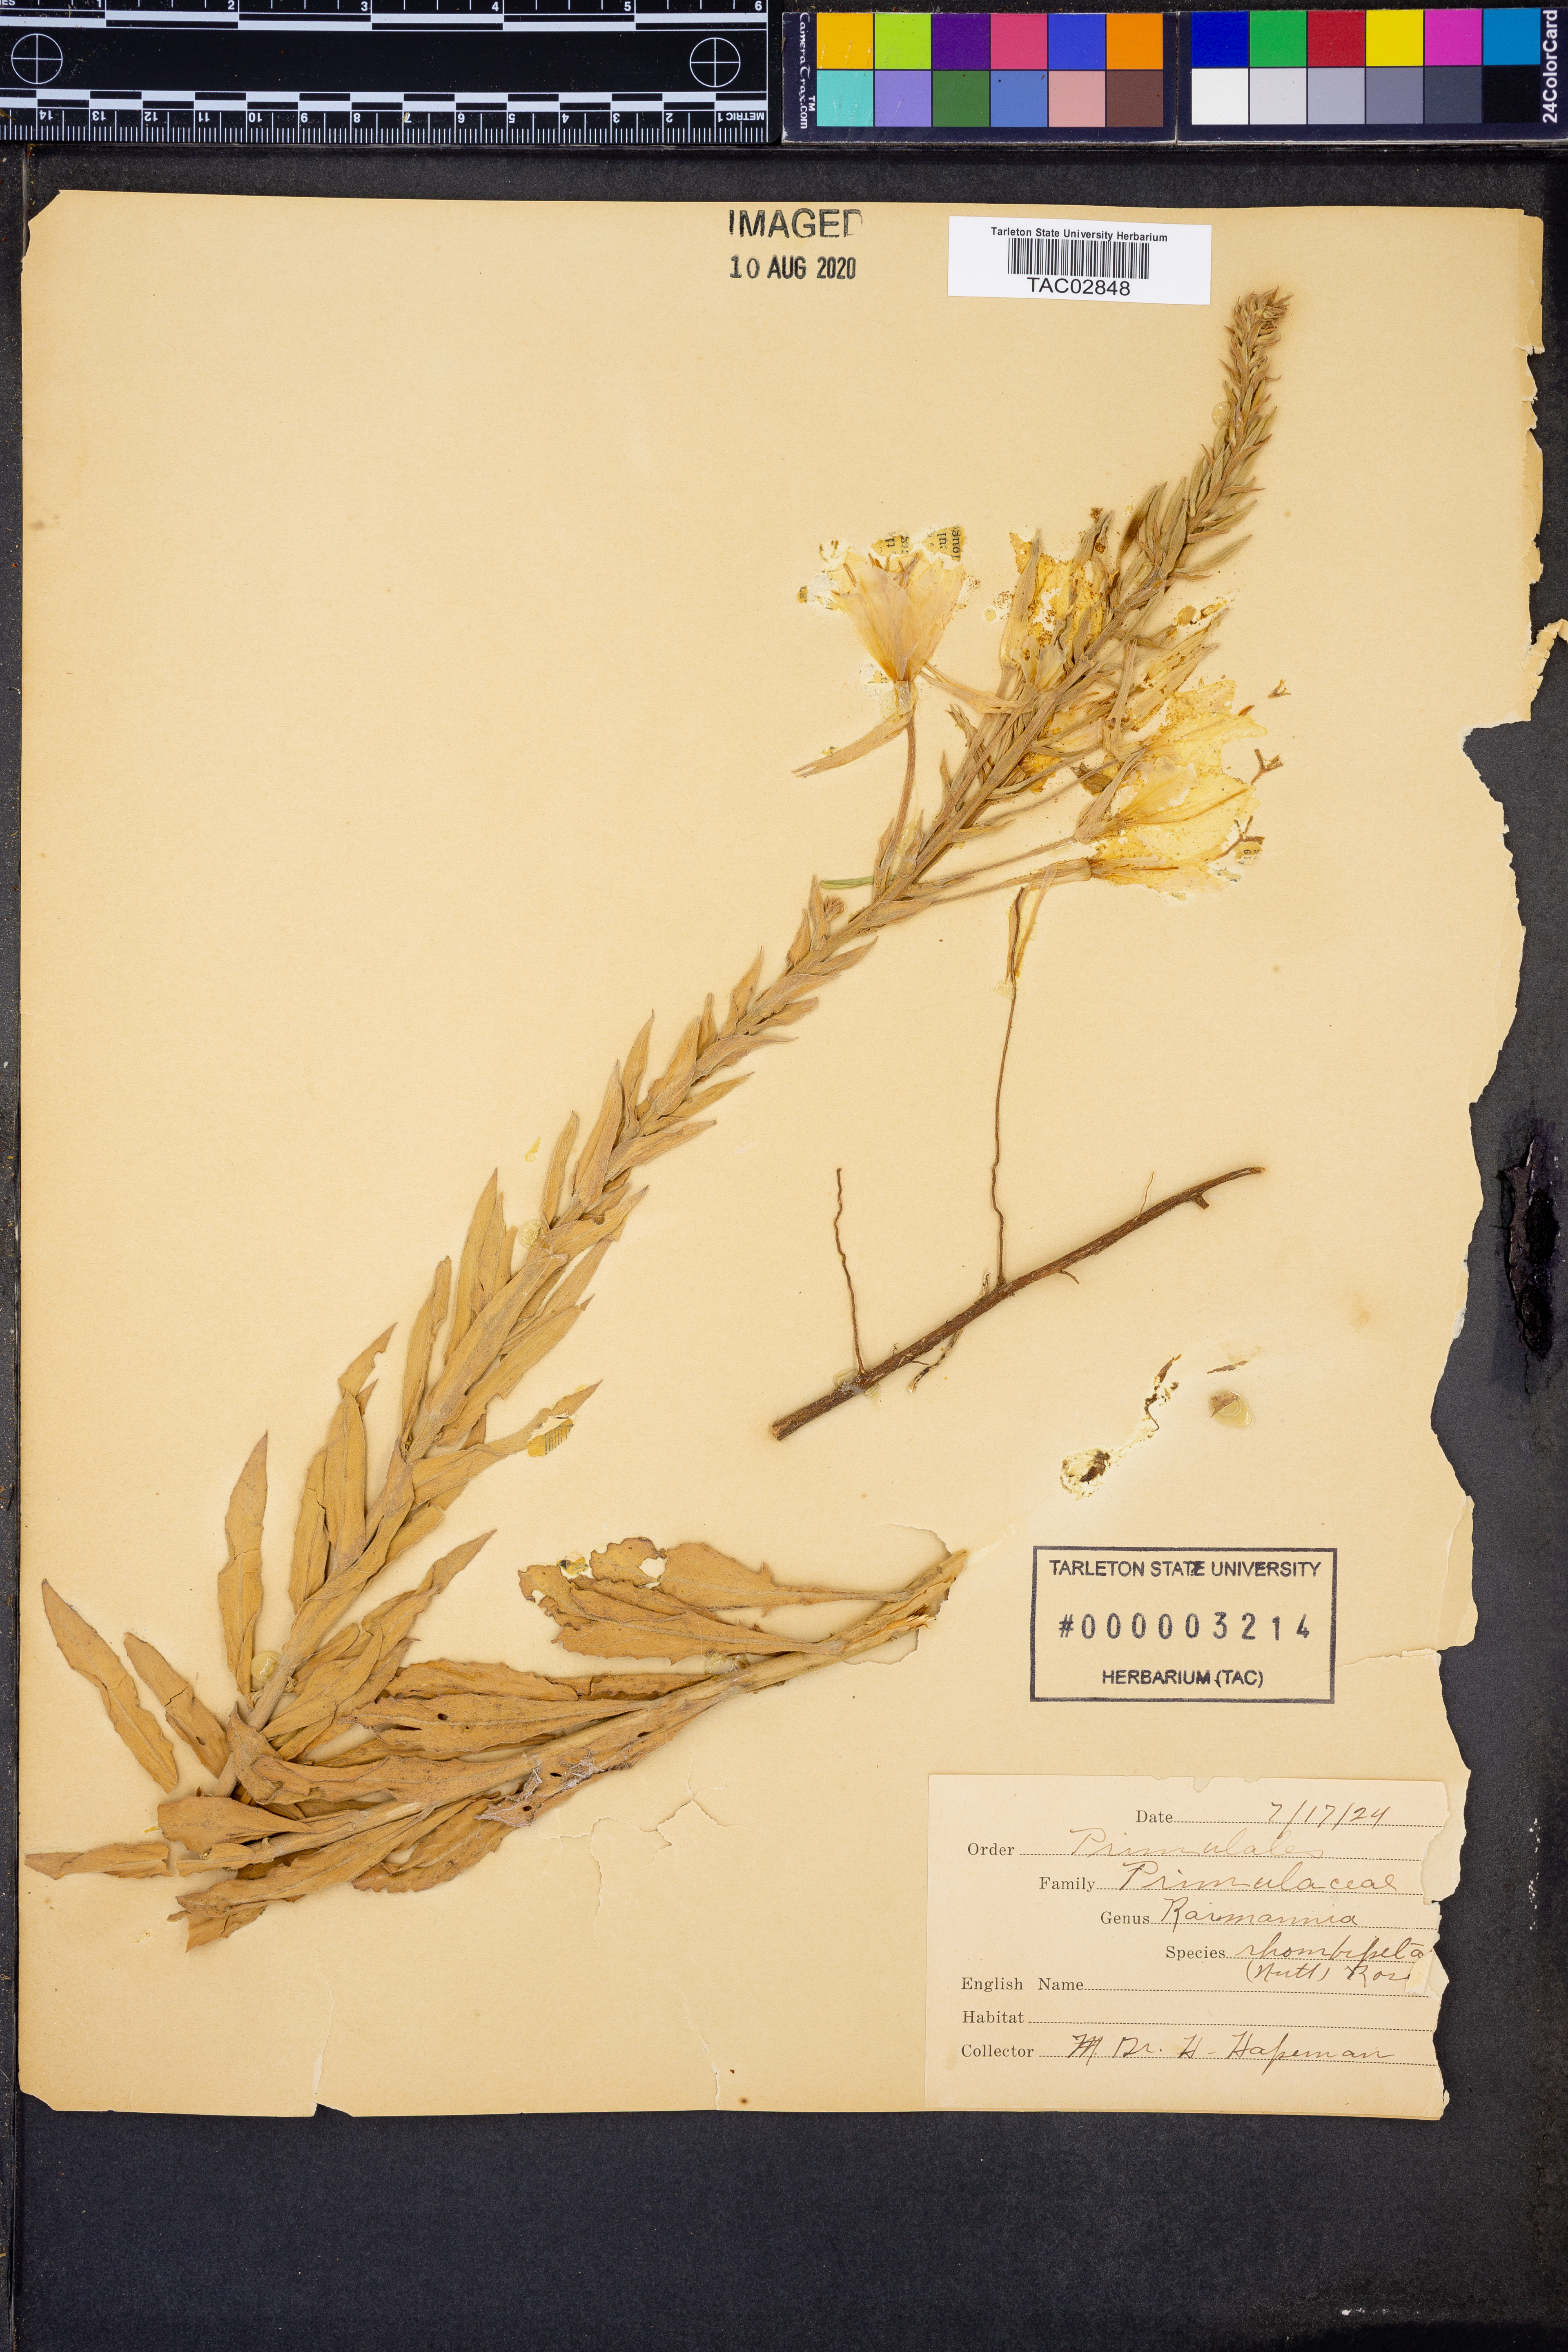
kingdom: Plantae
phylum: Tracheophyta
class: Magnoliopsida
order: Myrtales
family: Onagraceae
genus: Oenothera
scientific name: Oenothera rhombipetala
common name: Four-points evening-primrose
